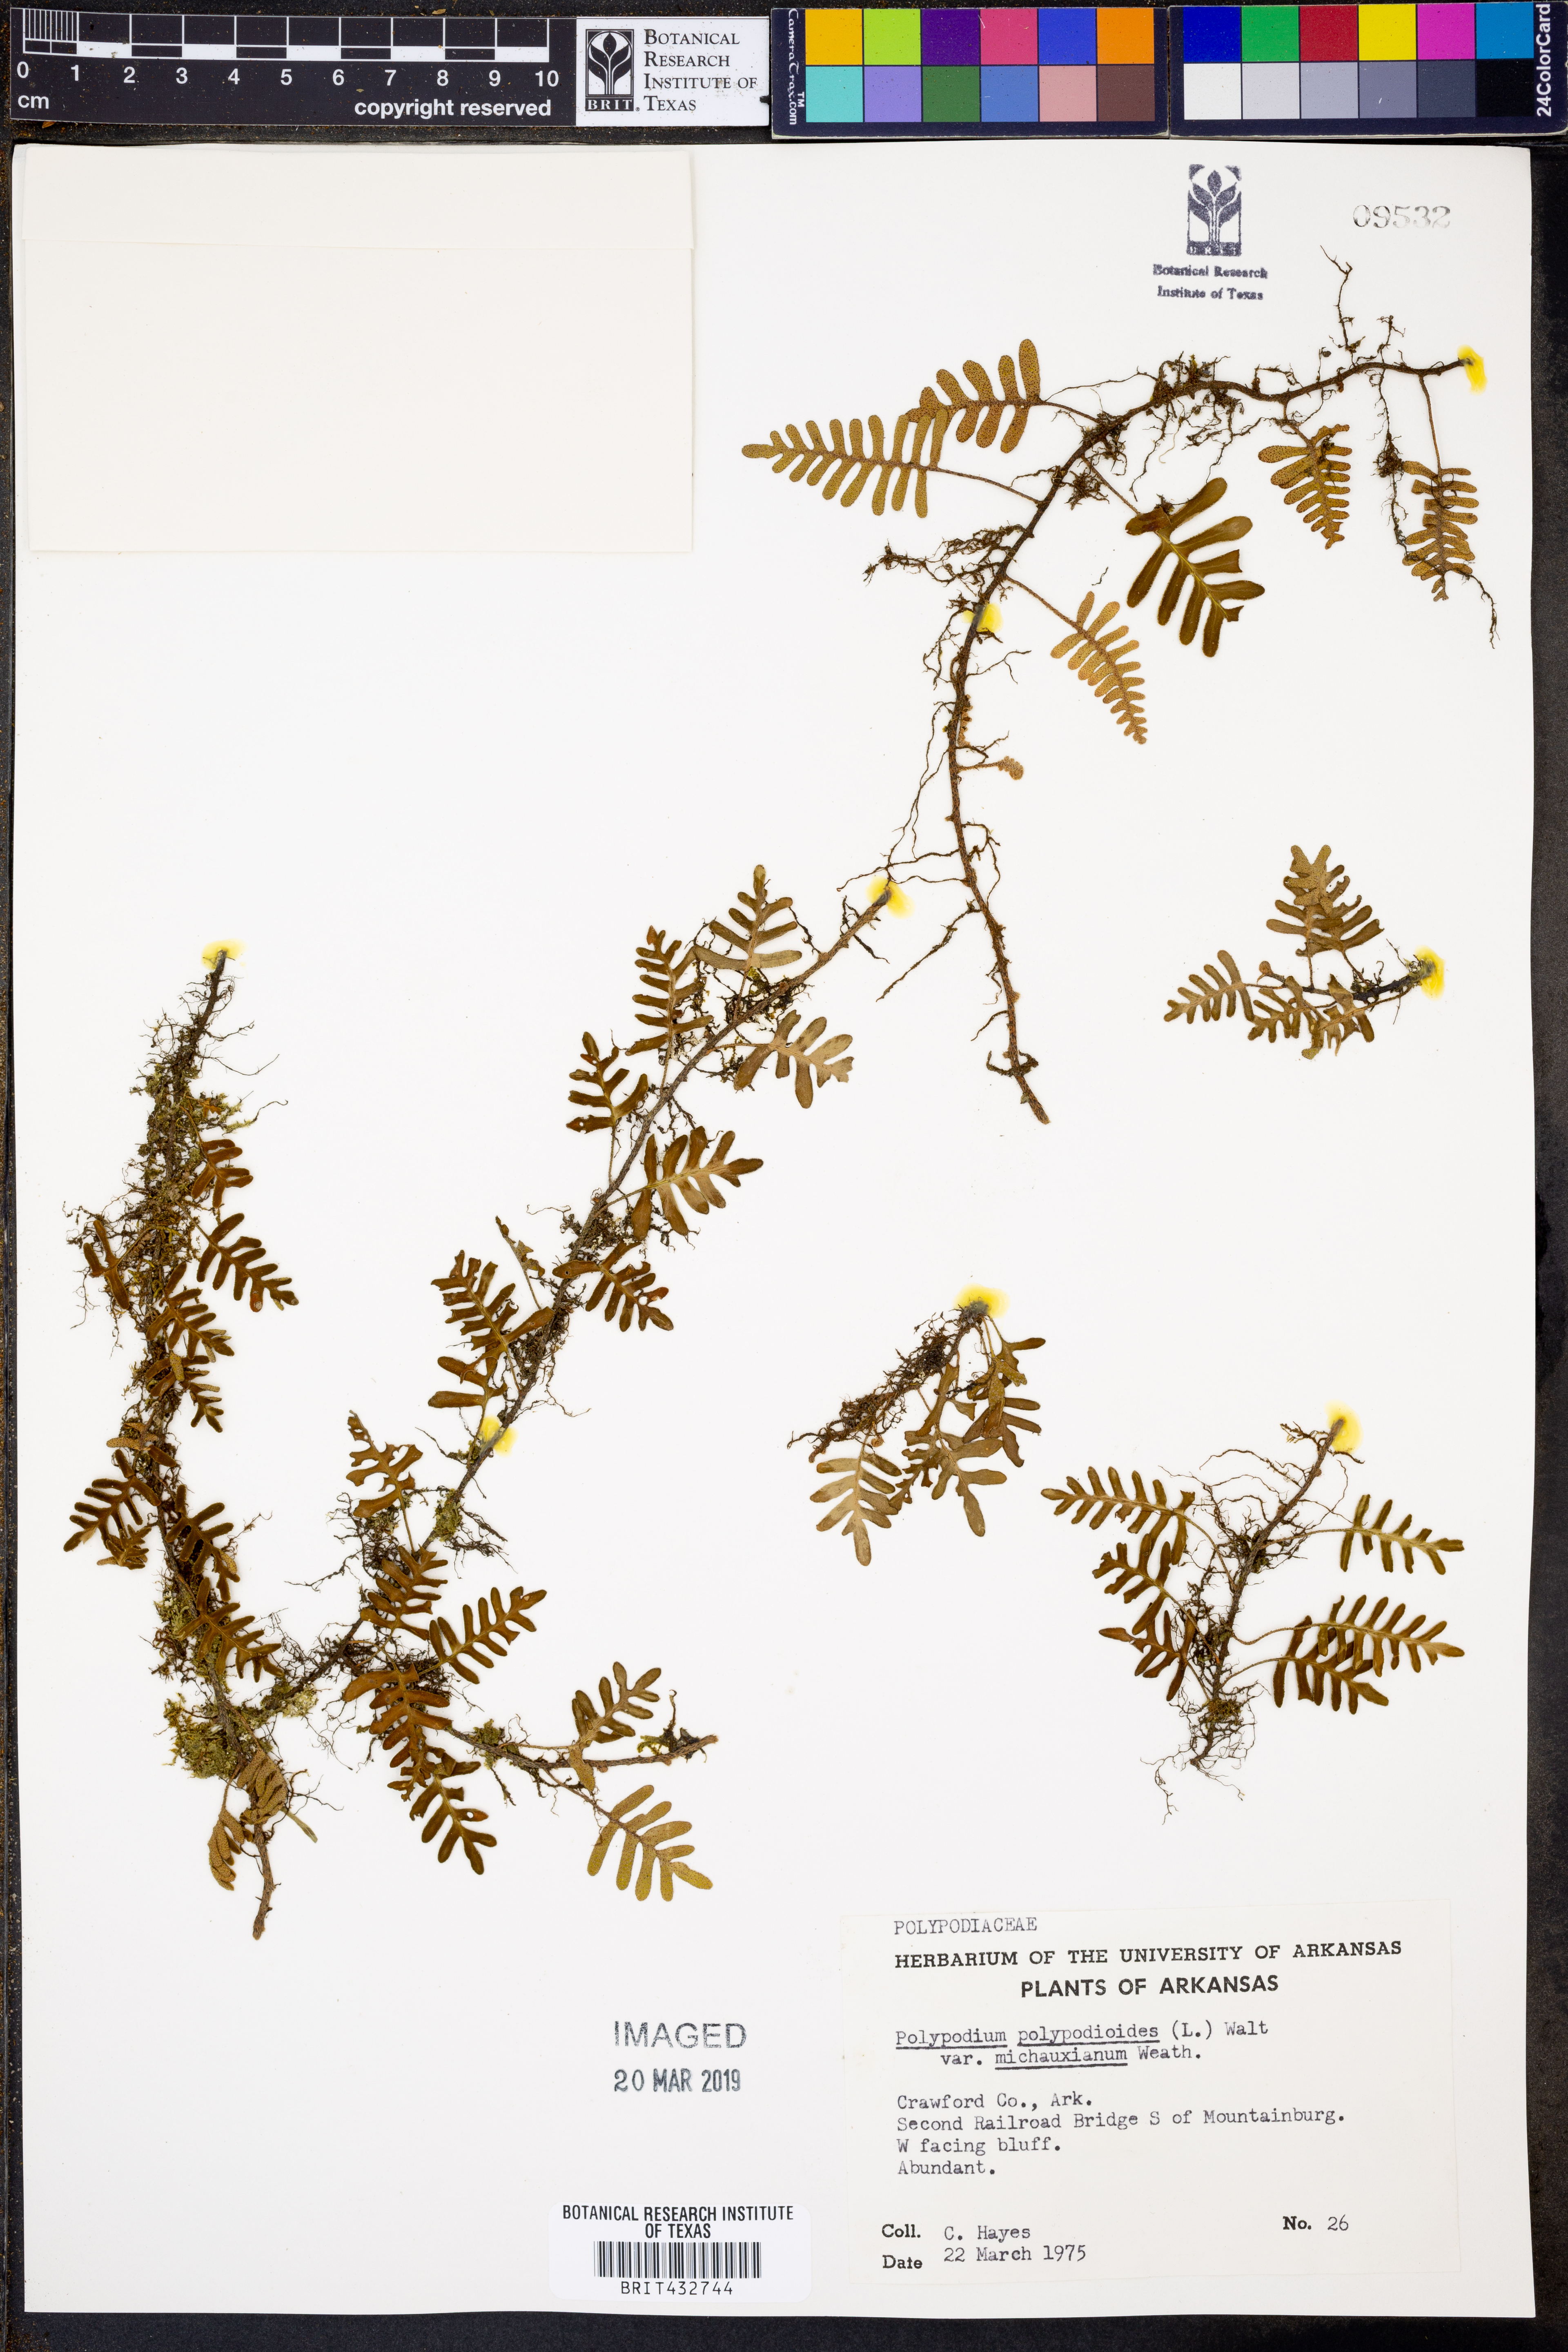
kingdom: Plantae
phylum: Tracheophyta
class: Polypodiopsida
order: Polypodiales
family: Polypodiaceae
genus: Pleopeltis
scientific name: Pleopeltis michauxiana
